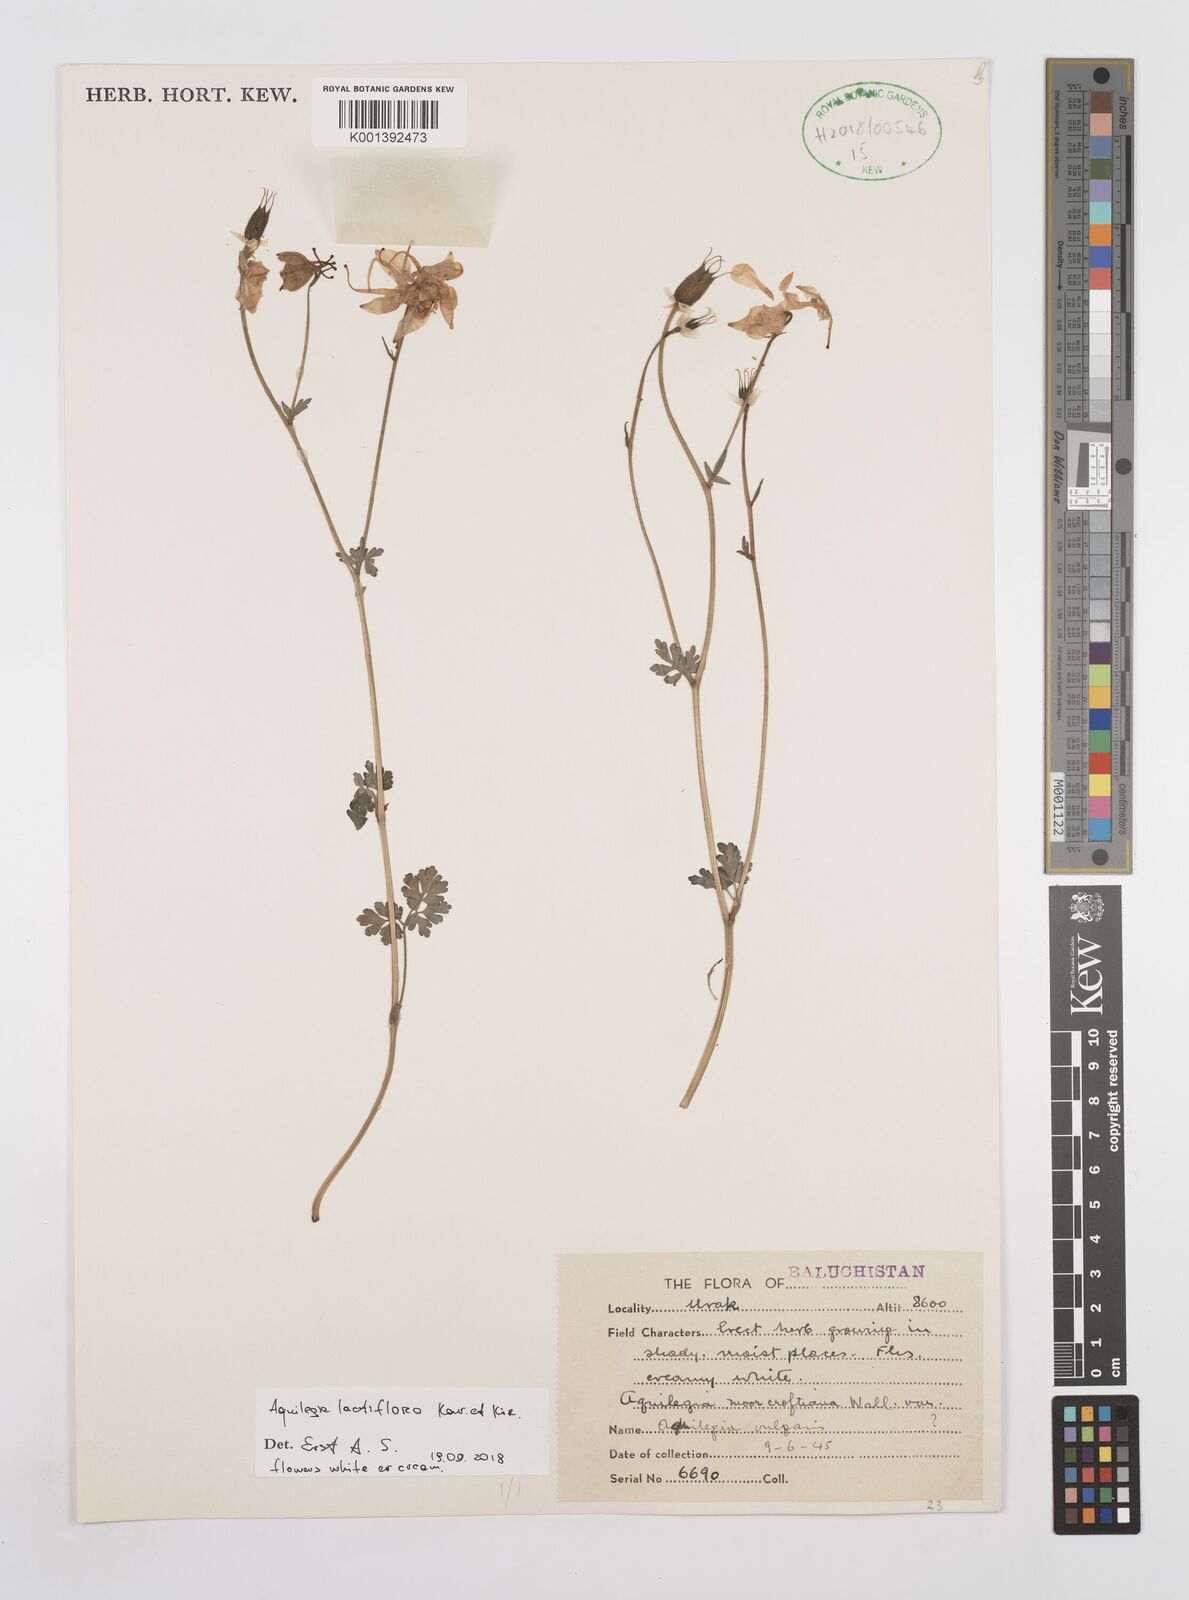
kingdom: Plantae
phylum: Tracheophyta
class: Magnoliopsida
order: Ranunculales
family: Ranunculaceae
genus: Aquilegia
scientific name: Aquilegia lactiflora
